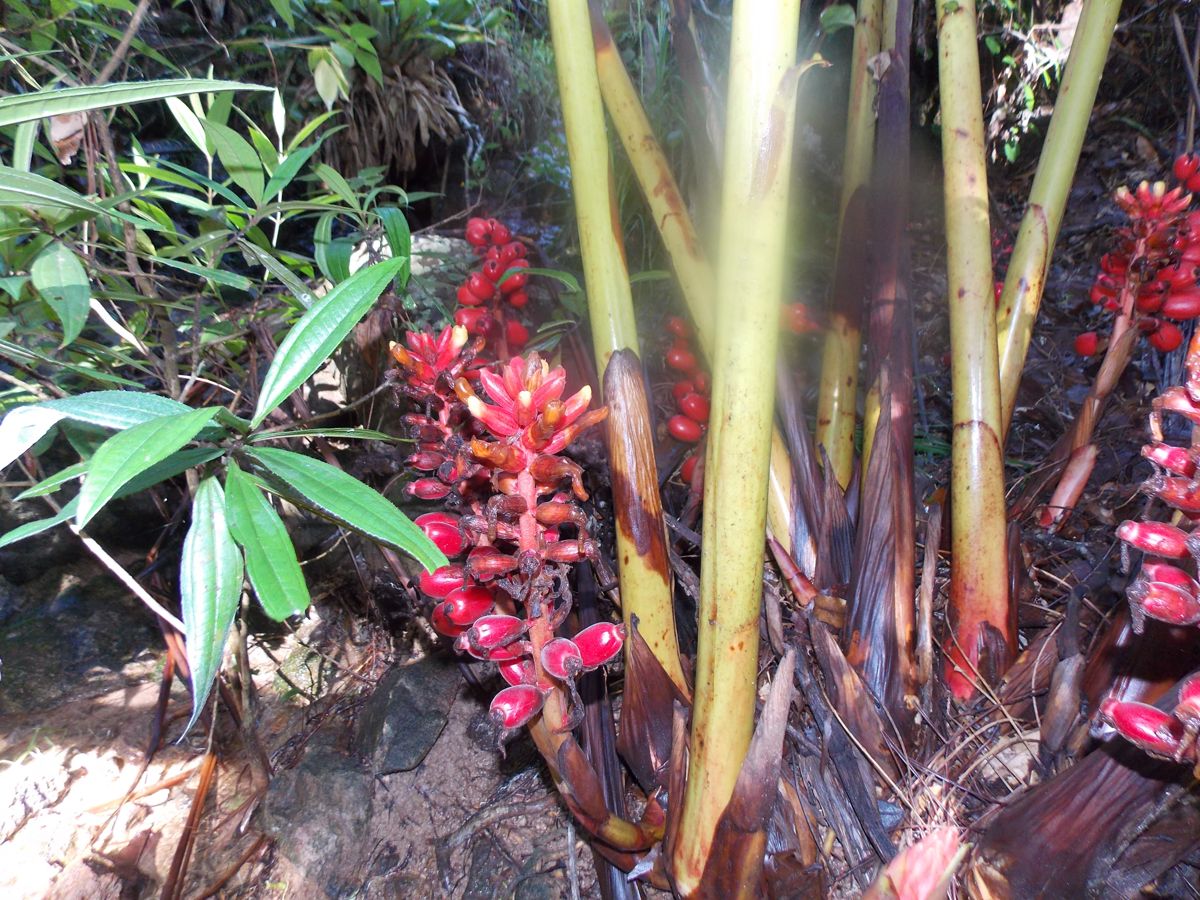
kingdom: Plantae
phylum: Tracheophyta
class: Liliopsida
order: Zingiberales
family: Zingiberaceae
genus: Renealmia
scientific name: Renealmia alpinia
